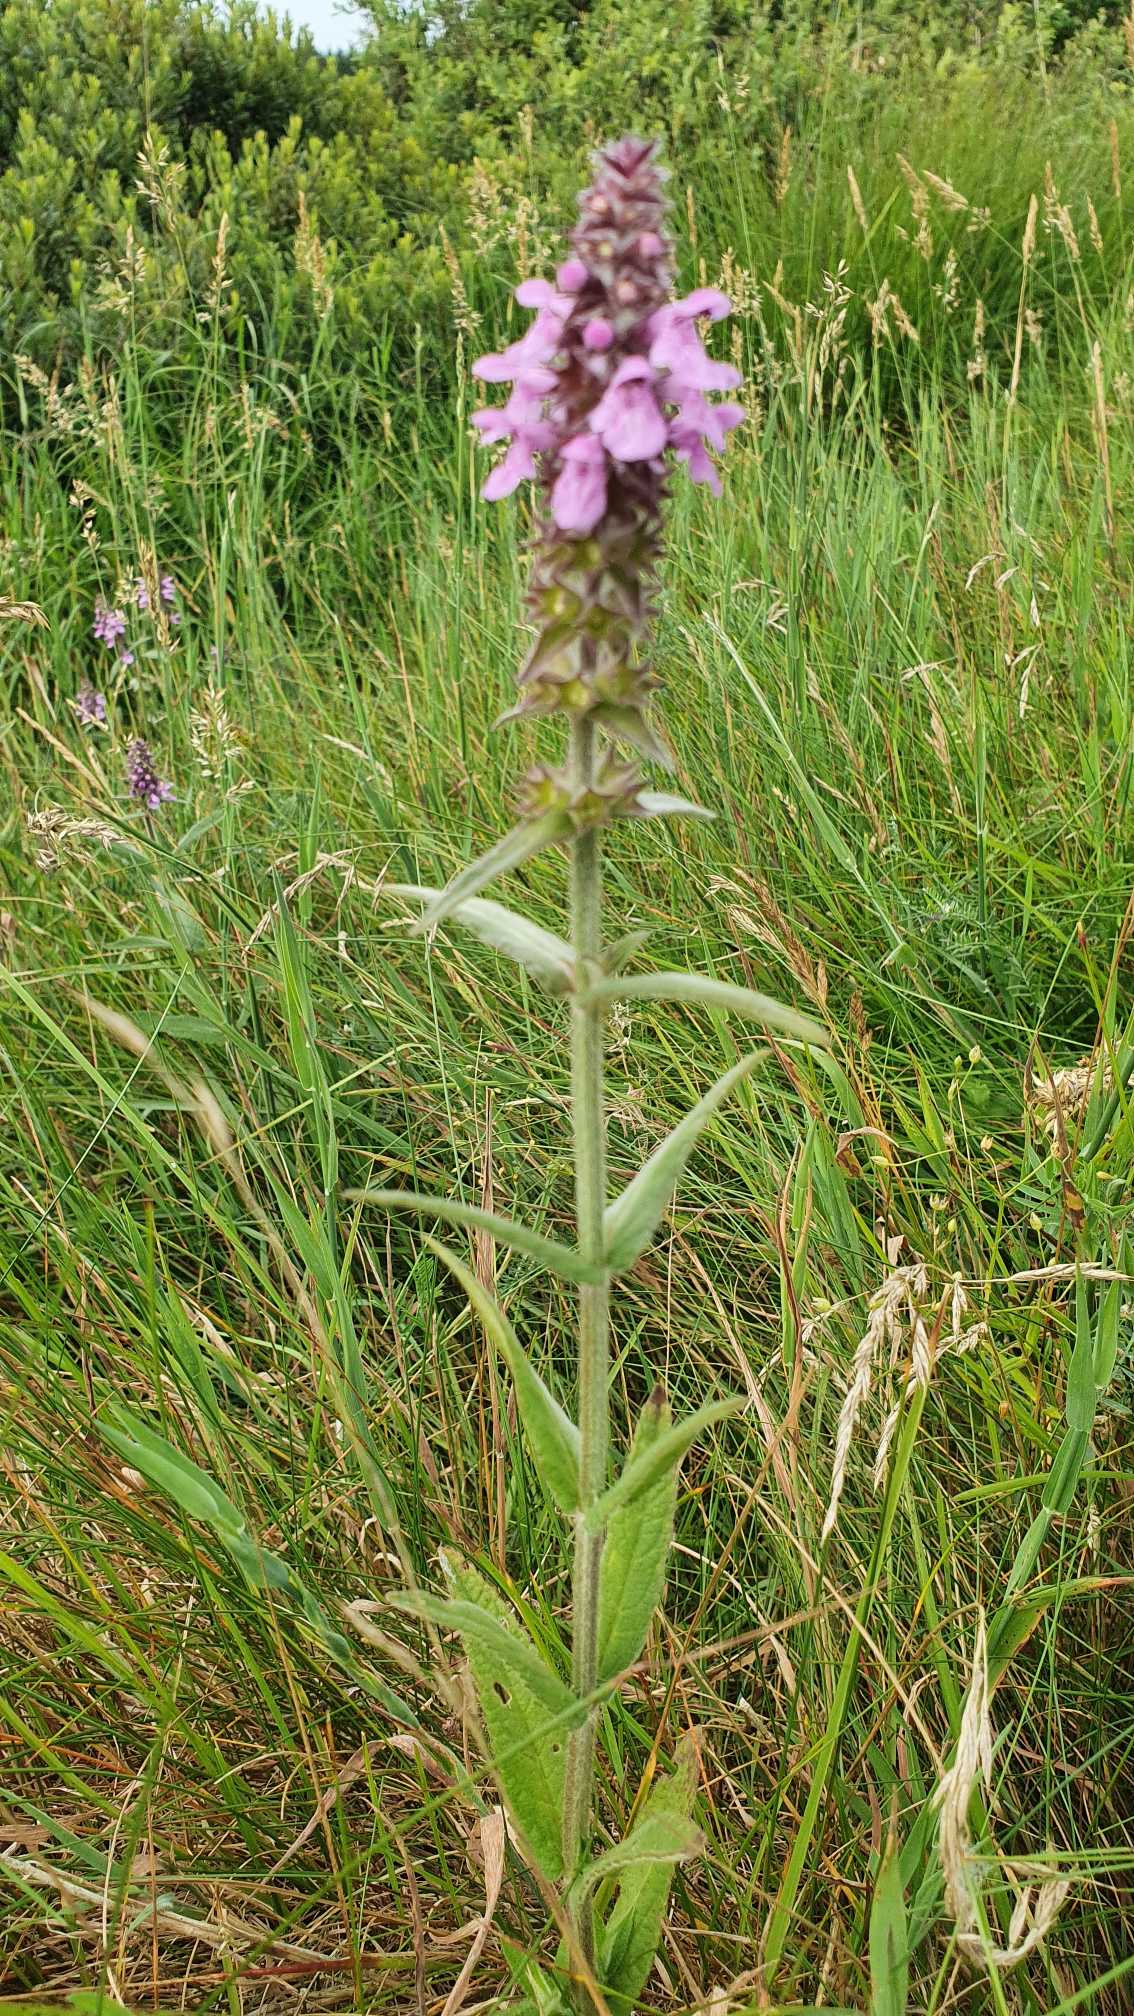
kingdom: Plantae
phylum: Tracheophyta
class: Magnoliopsida
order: Lamiales
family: Lamiaceae
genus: Stachys
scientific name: Stachys palustris
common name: Kær-galtetand
